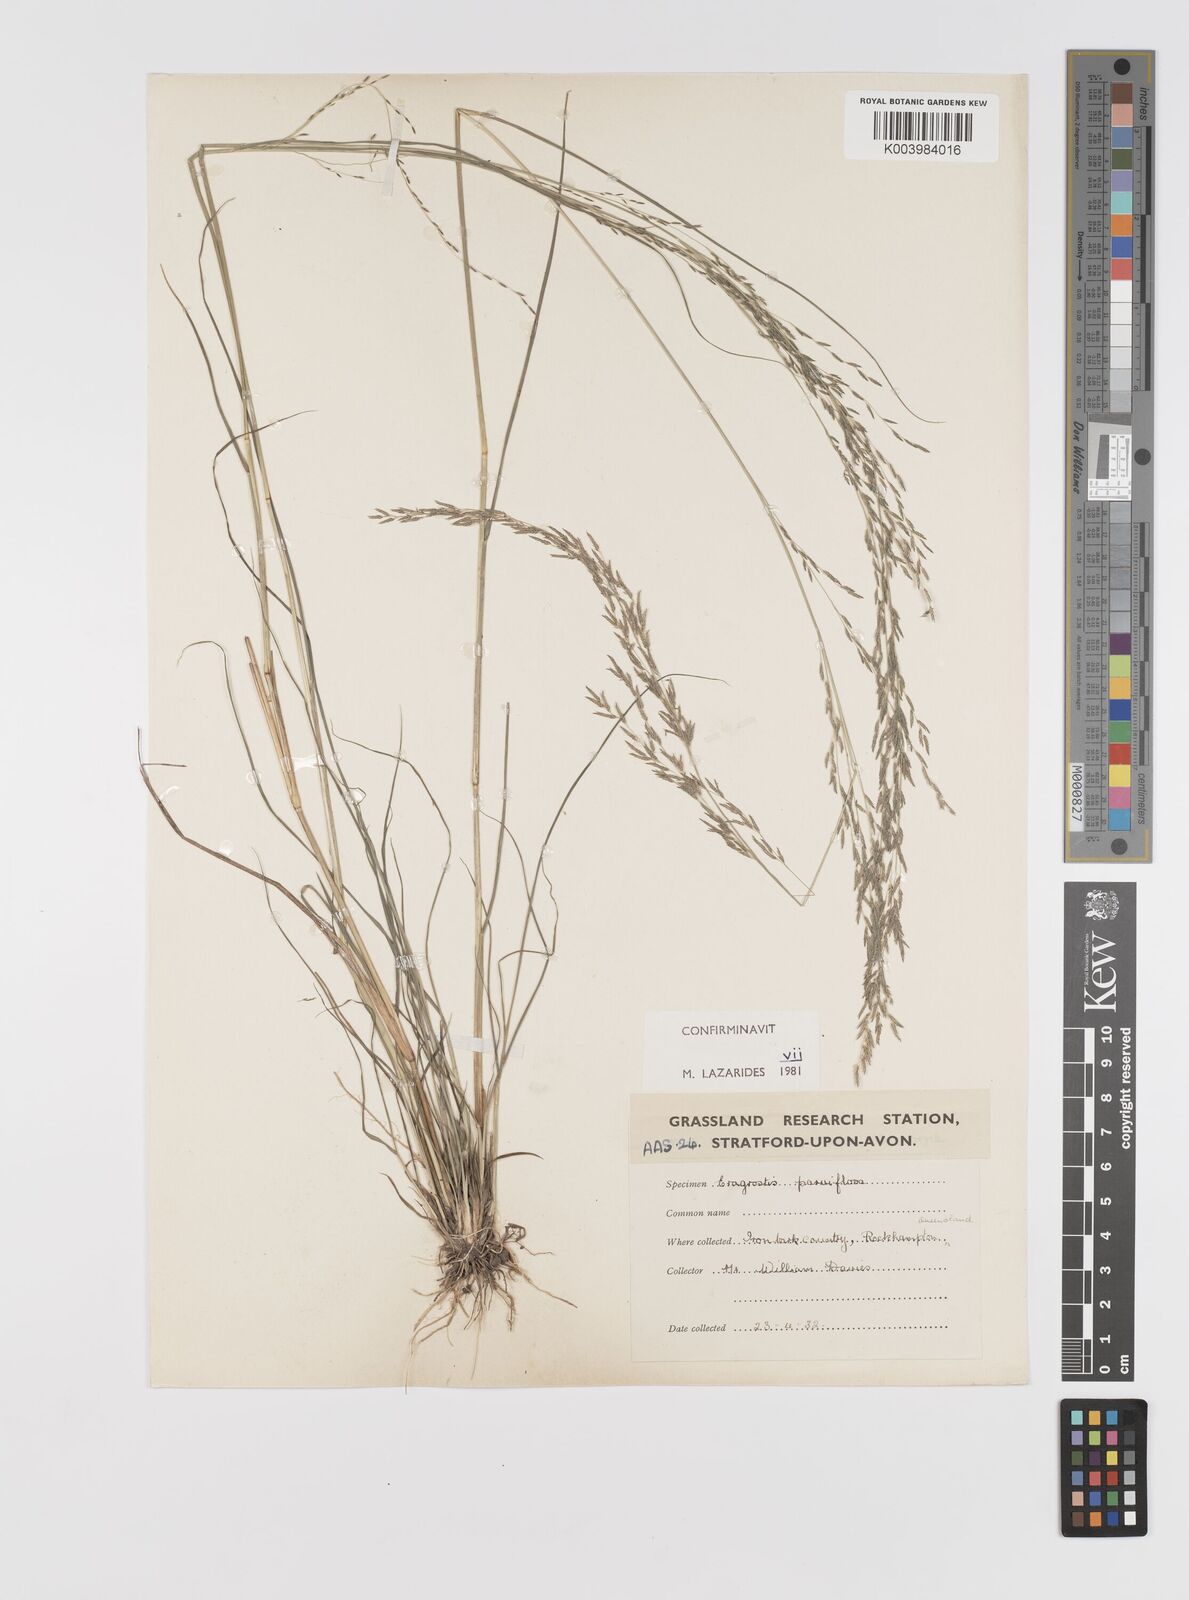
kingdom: Plantae
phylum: Tracheophyta
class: Liliopsida
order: Poales
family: Poaceae
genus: Eragrostis
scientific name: Eragrostis parviflora
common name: Weeping love-grass
